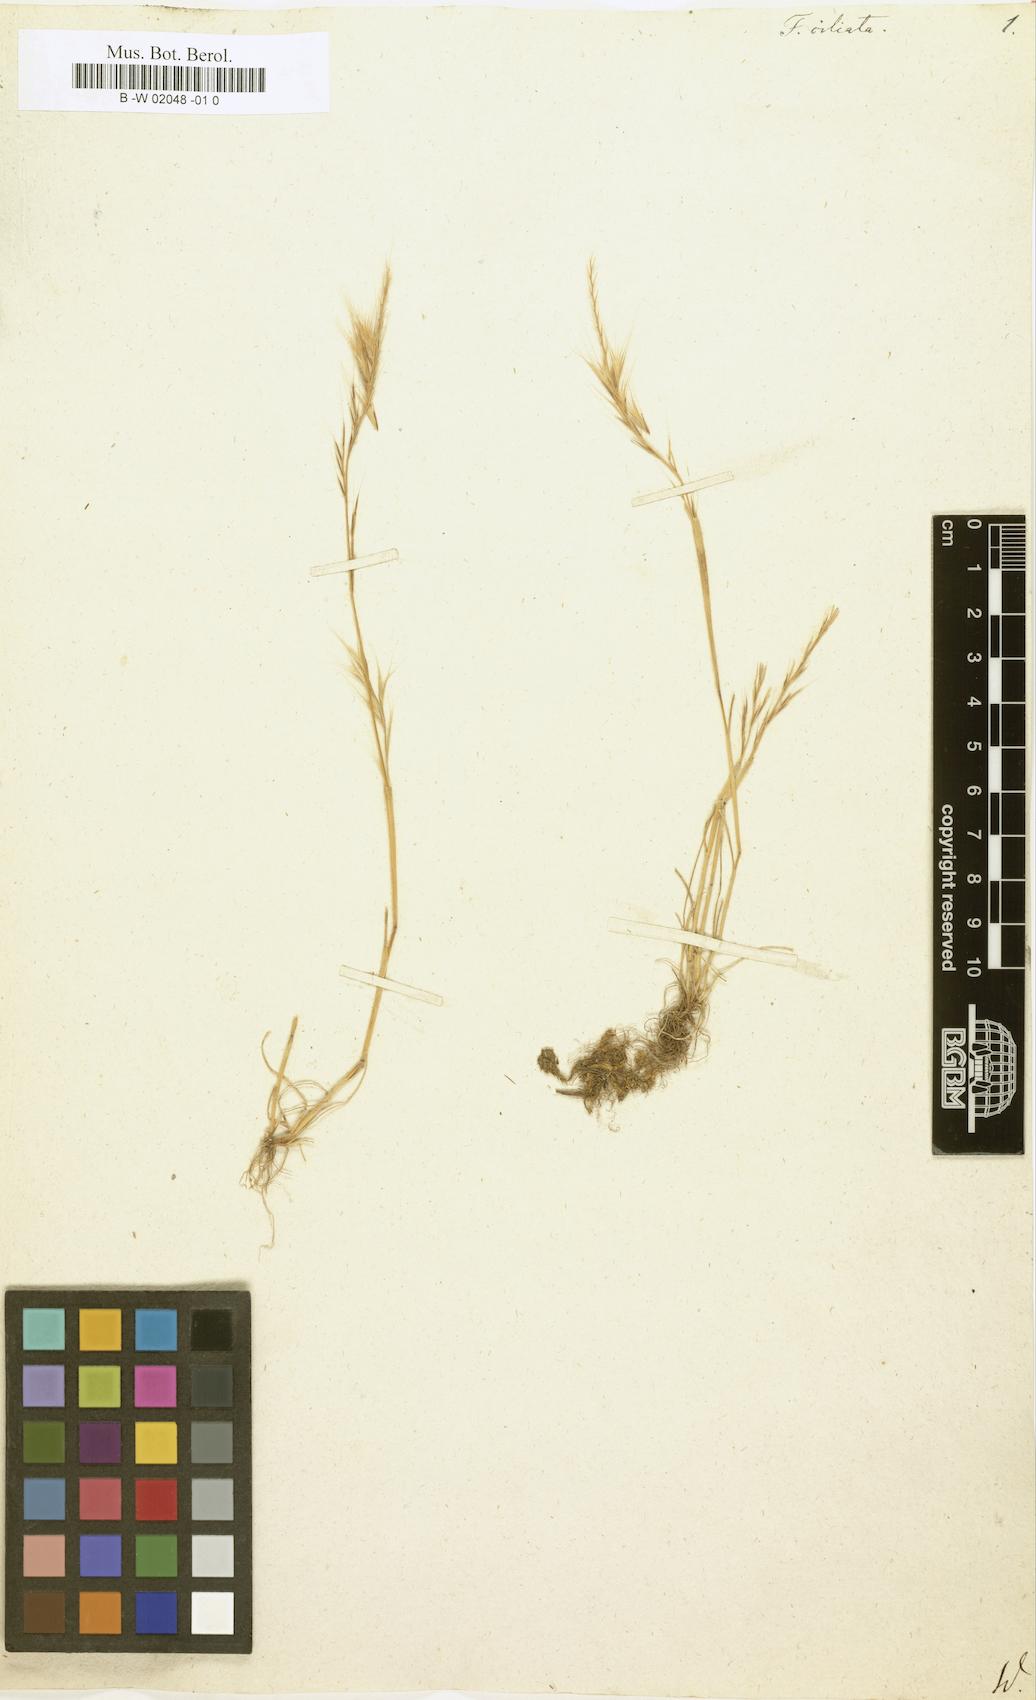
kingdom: Plantae
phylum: Tracheophyta
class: Liliopsida
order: Poales
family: Poaceae
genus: Brachypodium
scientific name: Brachypodium distachyon
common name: Stiff brome
